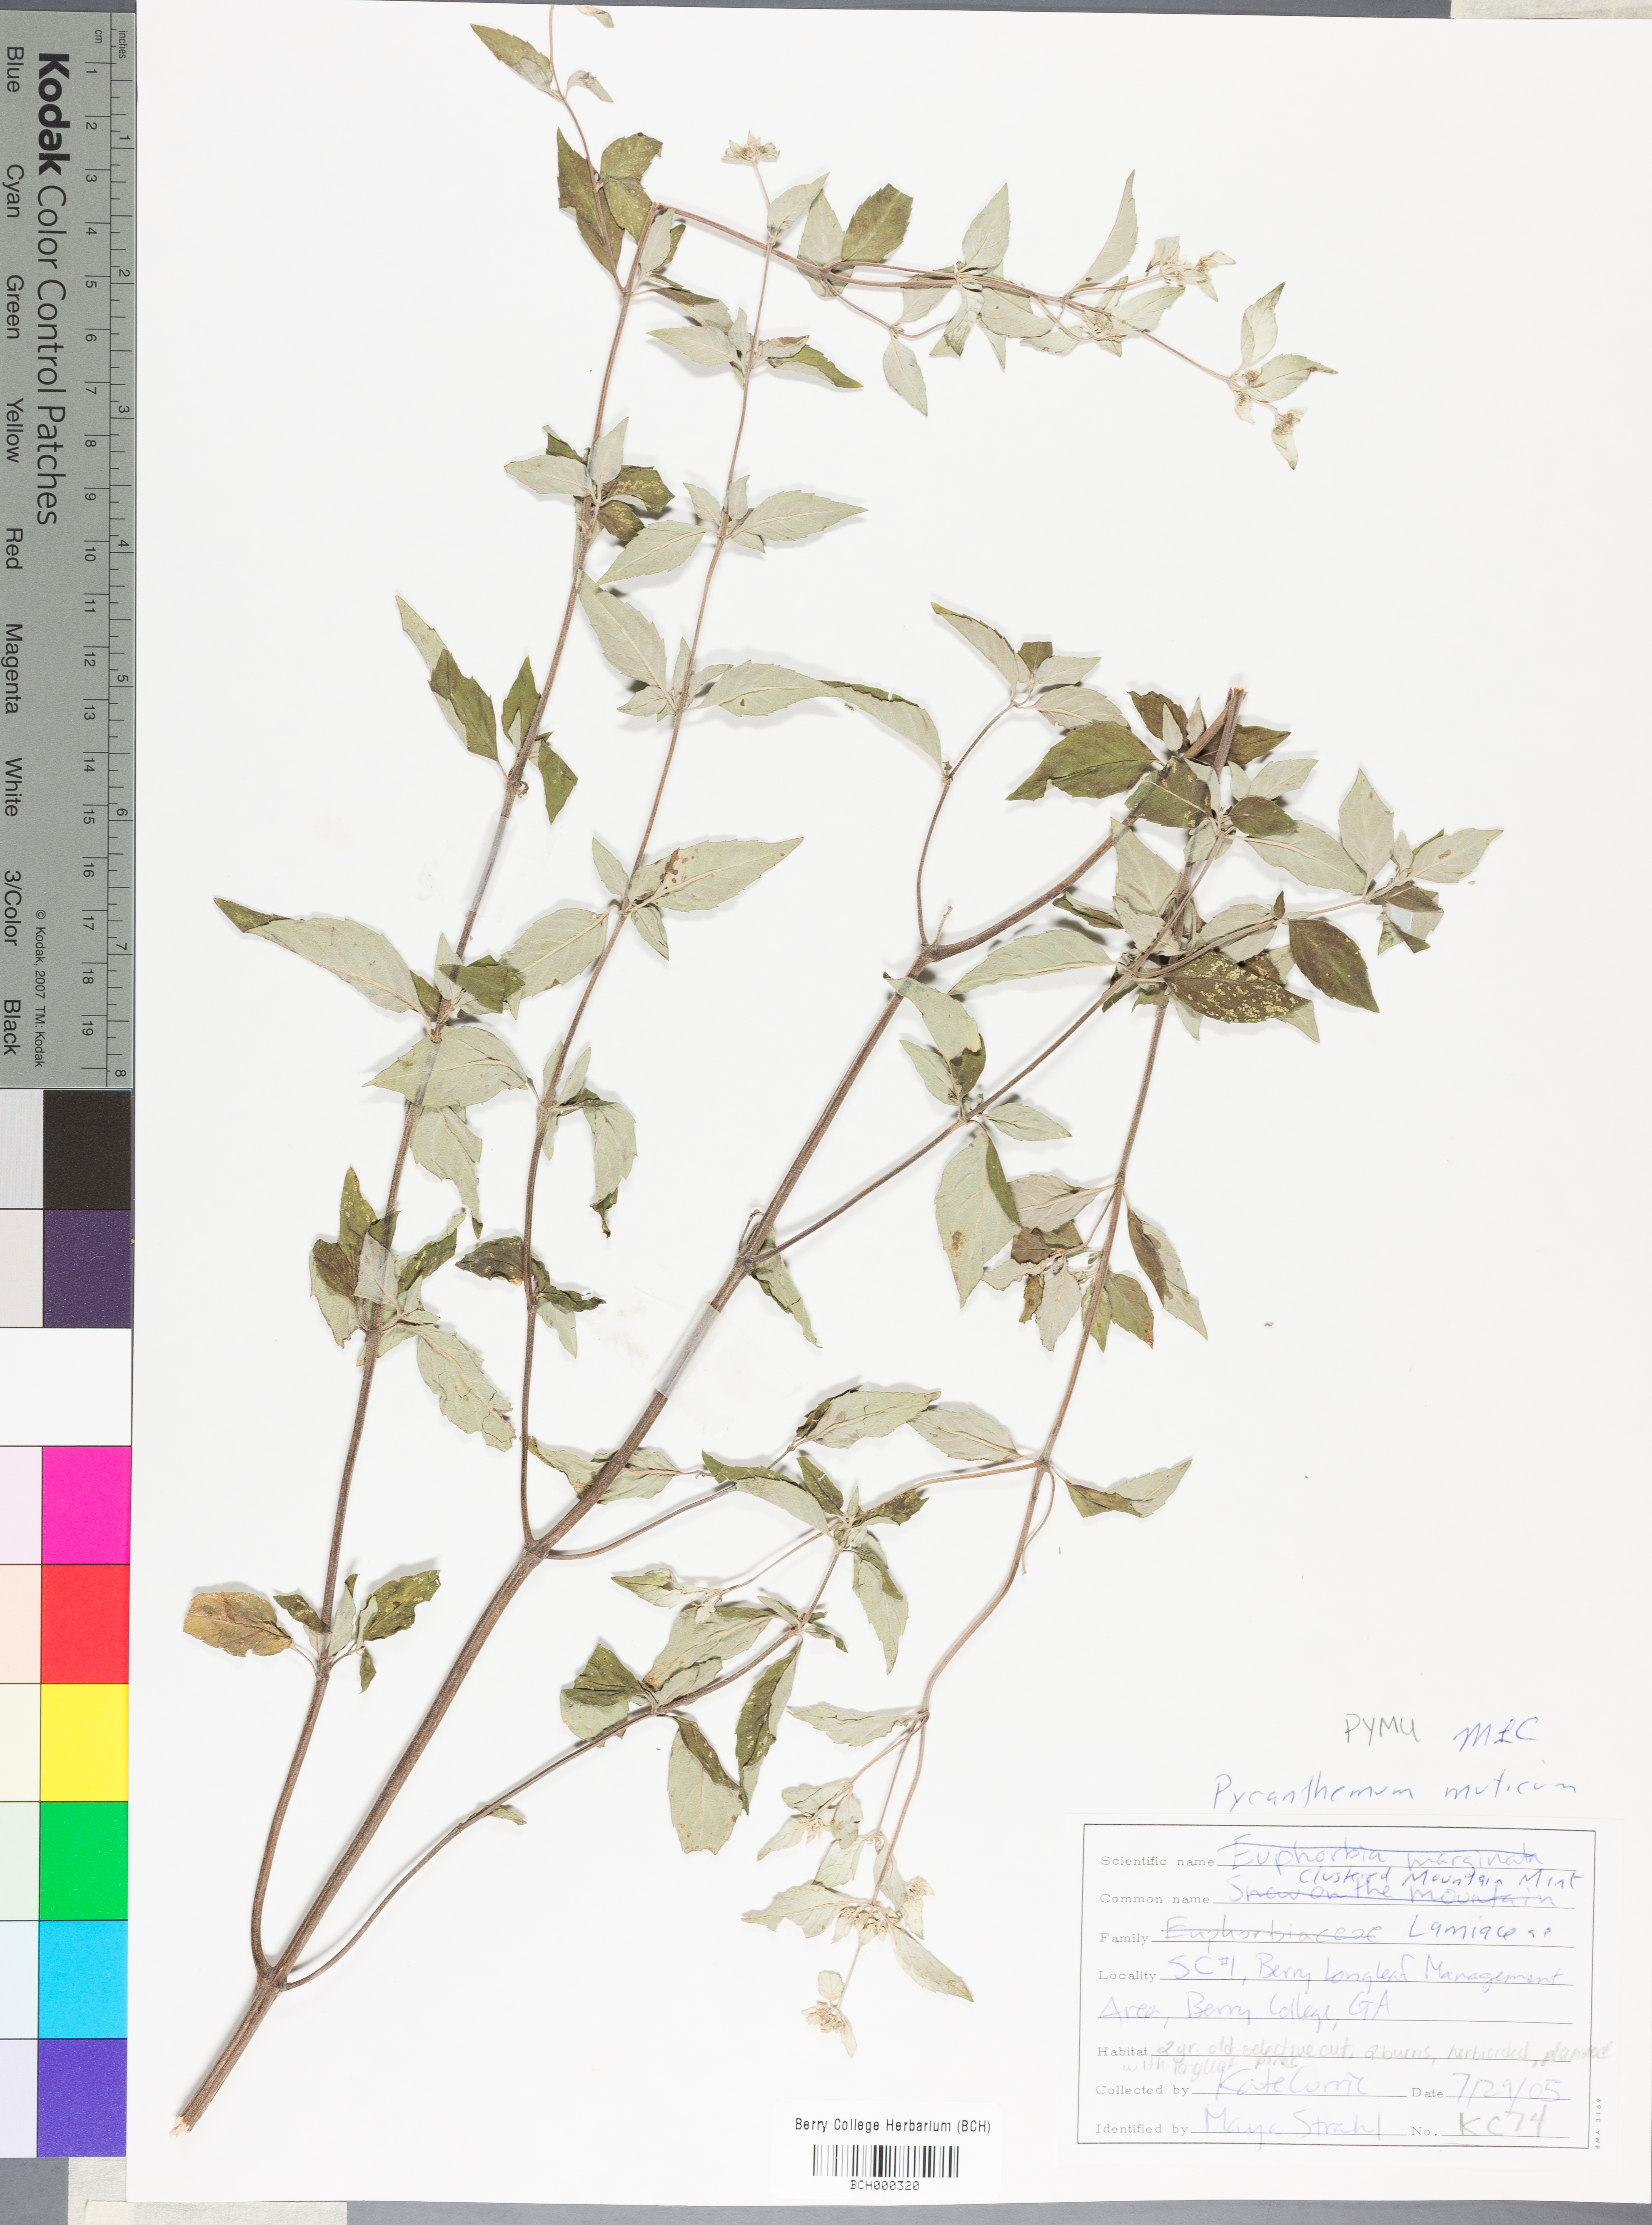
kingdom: Plantae
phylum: Tracheophyta
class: Magnoliopsida
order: Lamiales
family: Lamiaceae
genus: Pycnanthemum
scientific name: Pycnanthemum muticum
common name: Blunt mountain-mint
